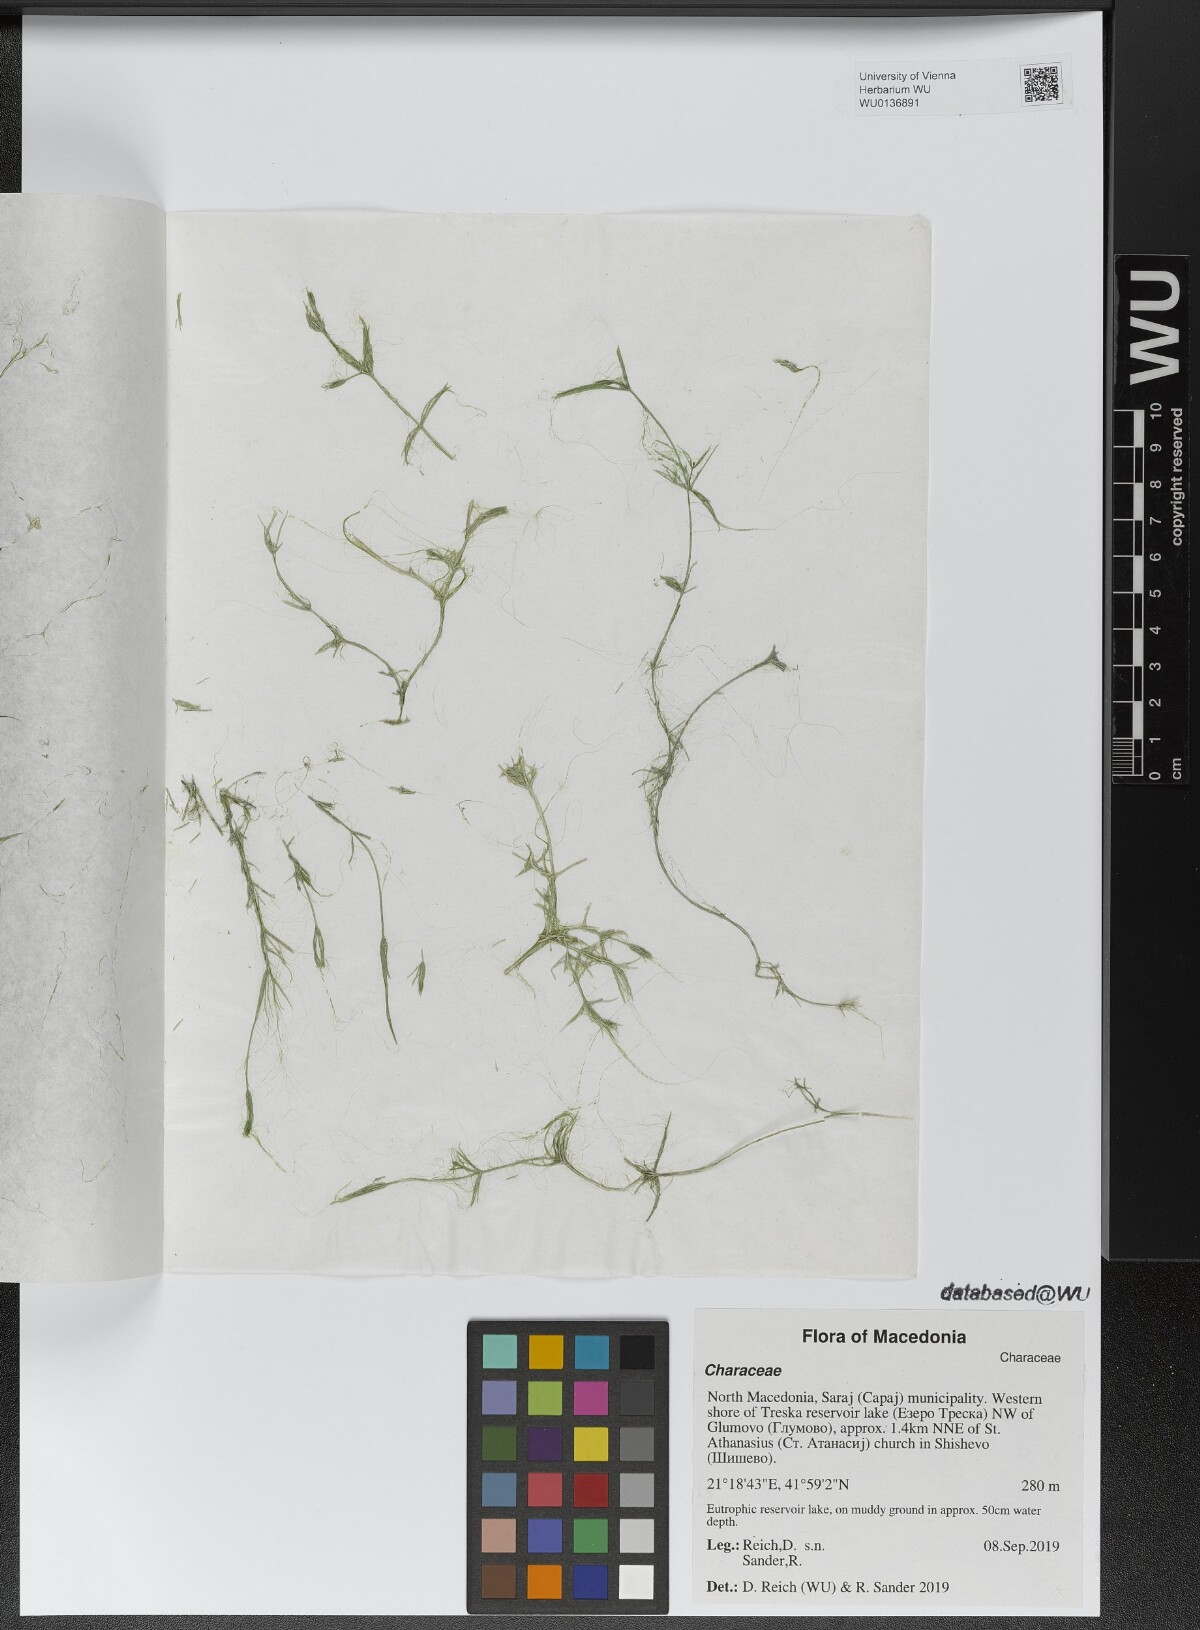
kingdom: Plantae
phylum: Charophyta
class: Charophyceae
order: Charales
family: Characeae
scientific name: Characeae
